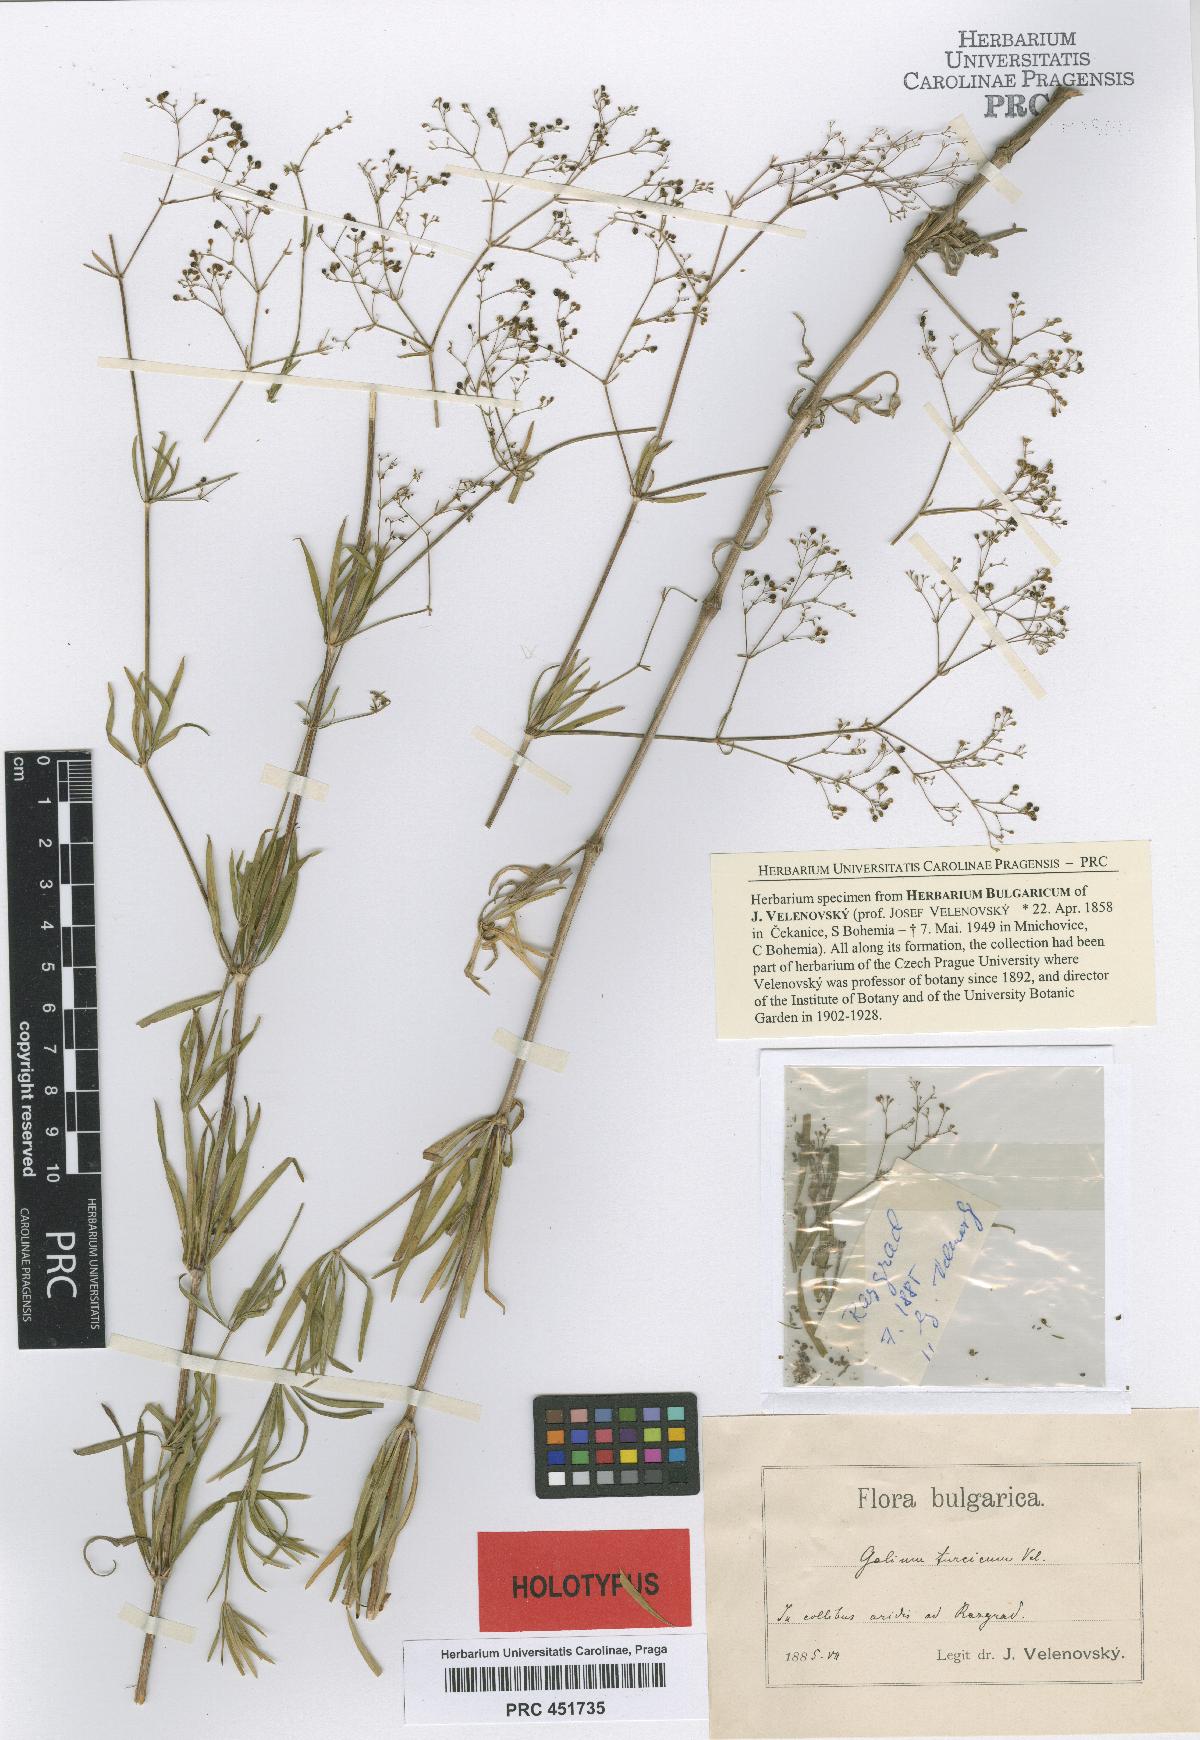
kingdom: Plantae
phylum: Tracheophyta
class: Magnoliopsida
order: Gentianales
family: Rubiaceae
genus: Galium
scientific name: Galium pseudoaristatum
